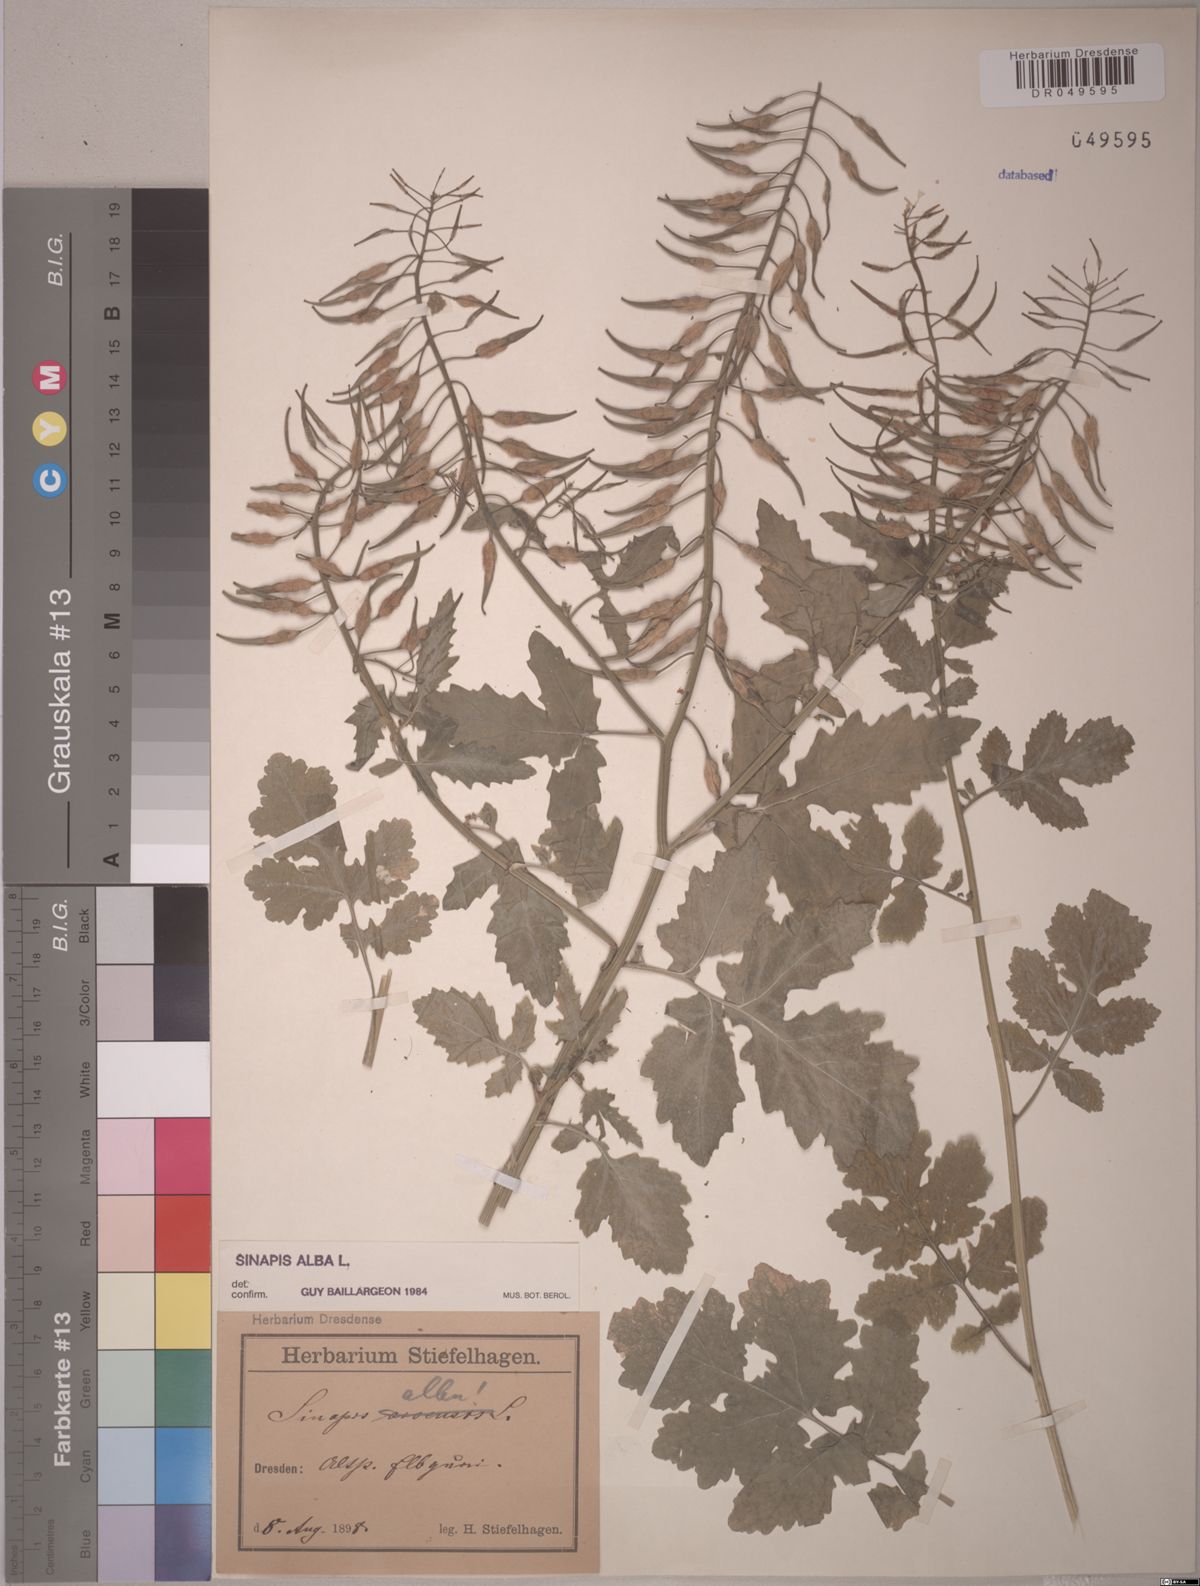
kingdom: Plantae
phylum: Tracheophyta
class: Magnoliopsida
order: Brassicales
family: Brassicaceae
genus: Sinapis
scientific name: Sinapis alba
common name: White mustard
